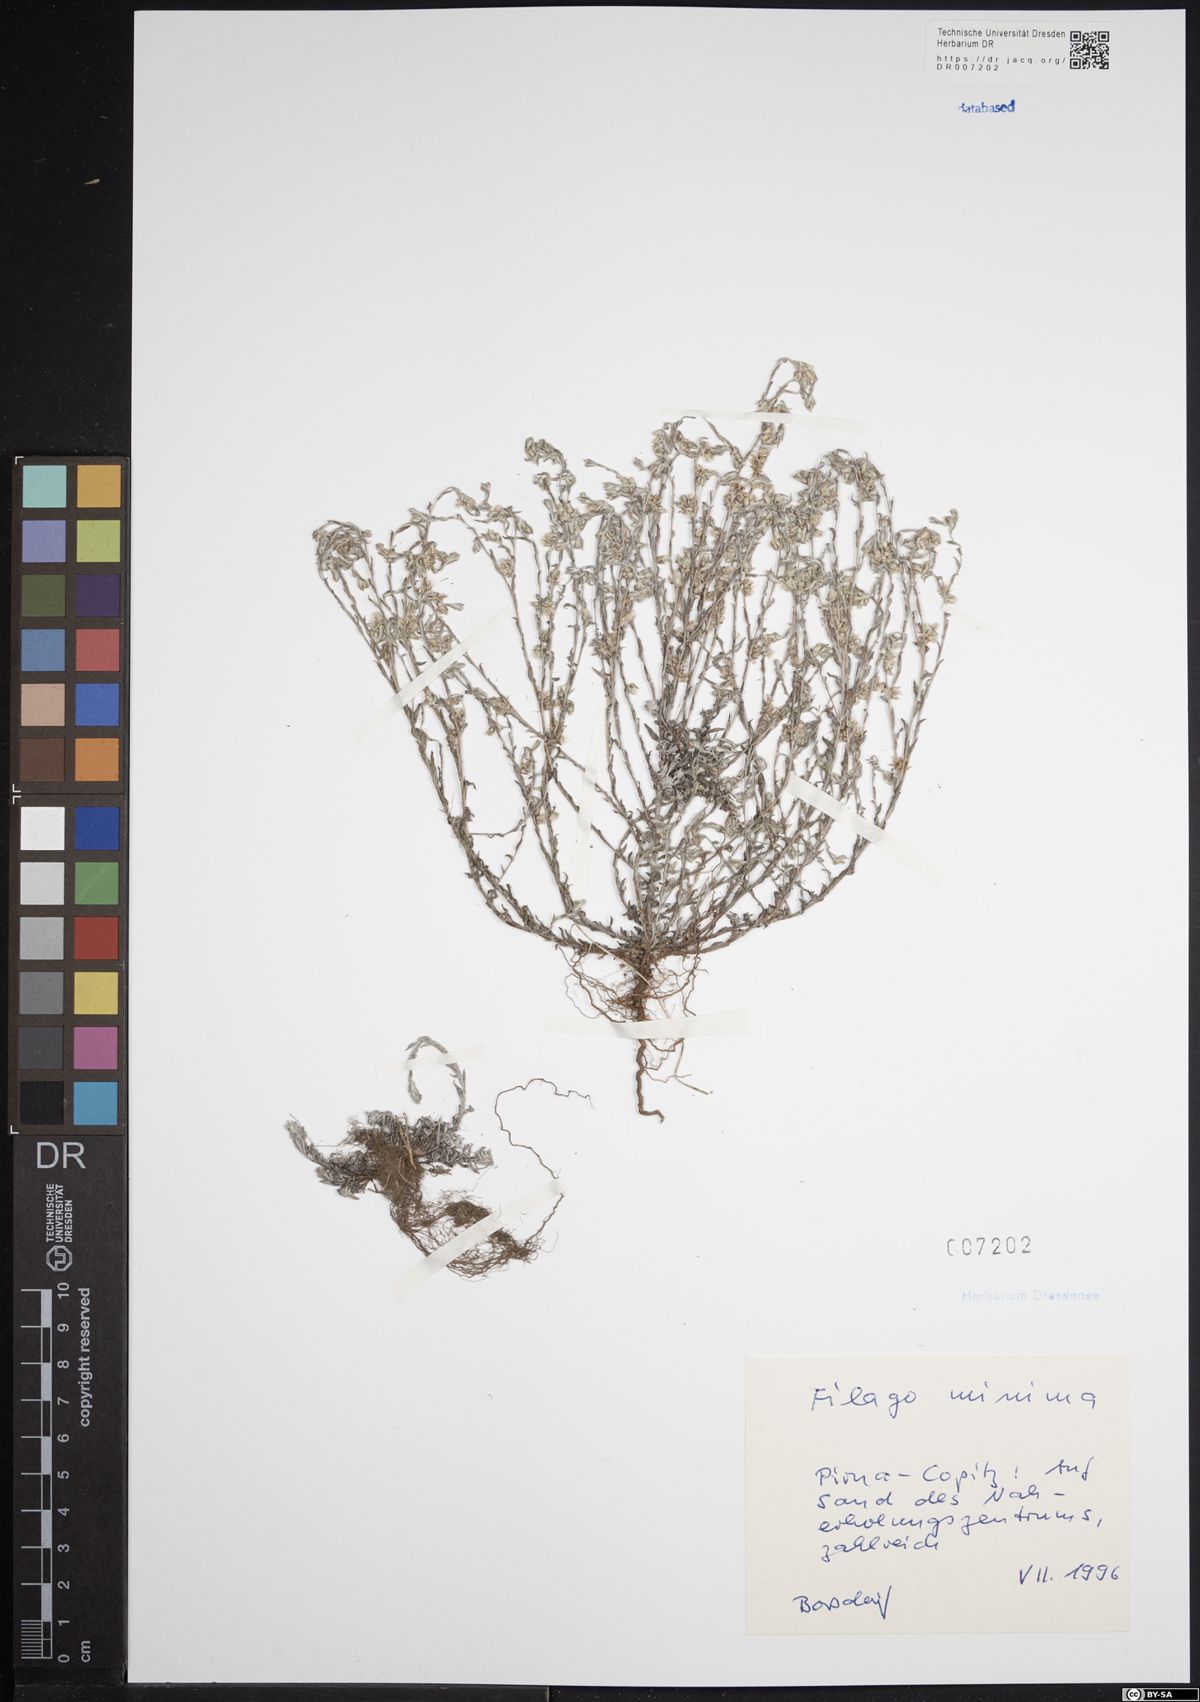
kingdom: Plantae
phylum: Tracheophyta
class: Magnoliopsida
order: Asterales
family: Asteraceae
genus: Logfia
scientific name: Logfia minima
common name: Little cottonrose
